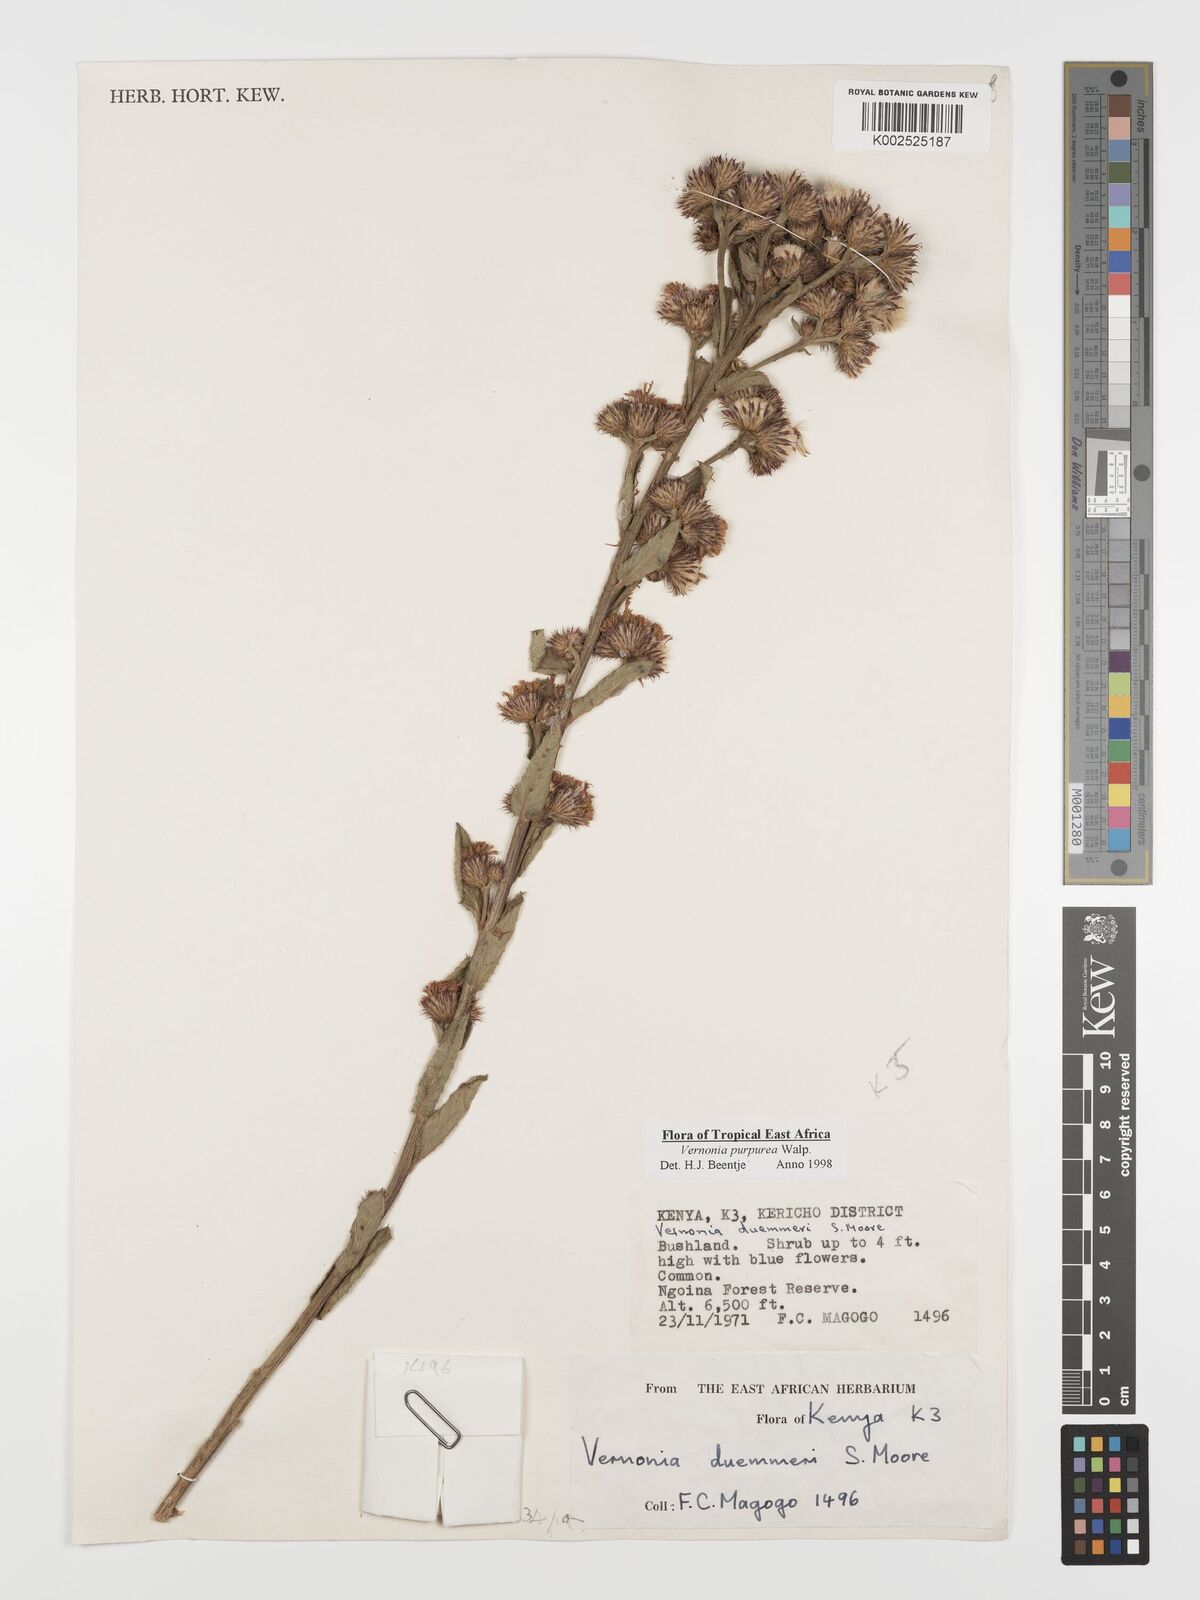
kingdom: Plantae
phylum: Tracheophyta
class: Magnoliopsida
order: Asterales
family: Asteraceae
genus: Nothovernonia
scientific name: Nothovernonia purpurea
